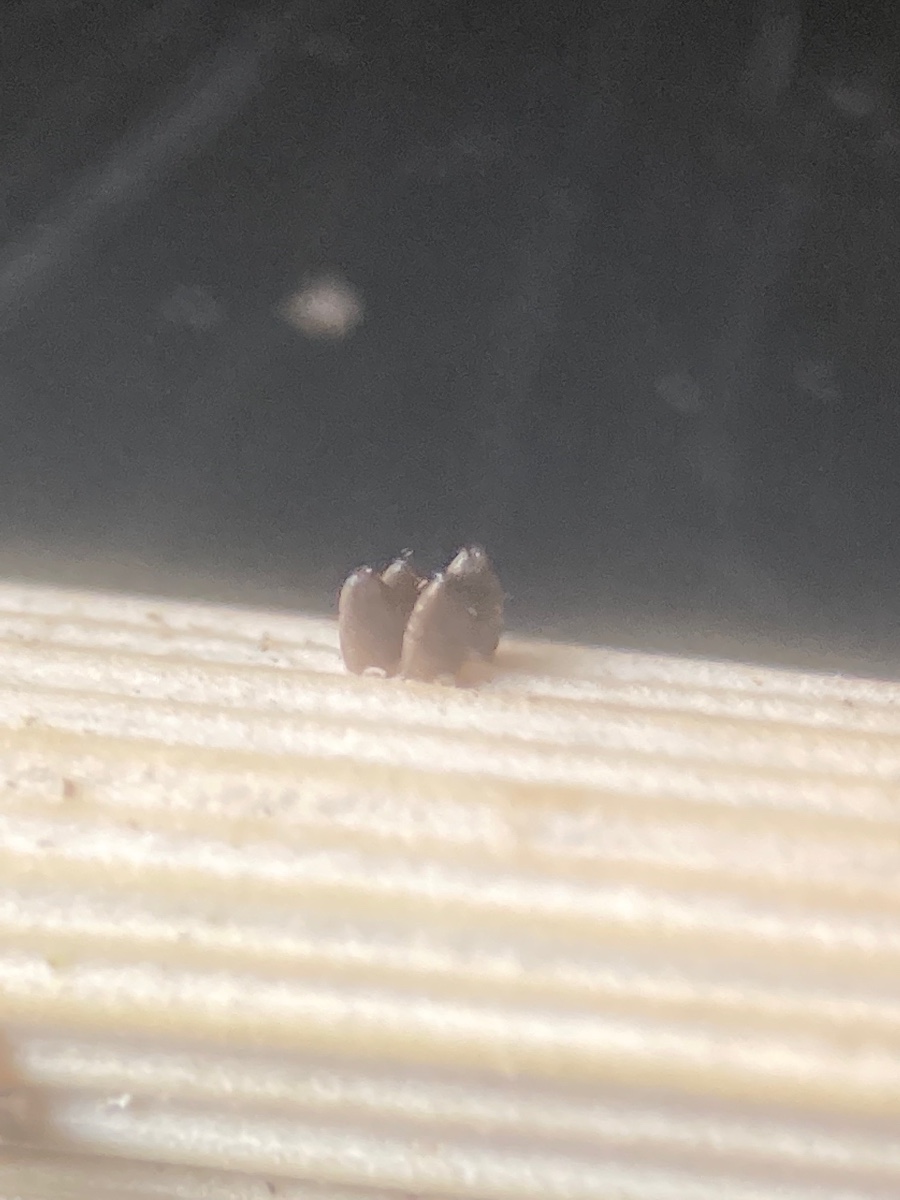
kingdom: Fungi
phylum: Ascomycota
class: Dothideomycetes
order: Acrospermales
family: Acrospermaceae
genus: Acrospermum
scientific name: Acrospermum graminum
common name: græs-stængeltunge
